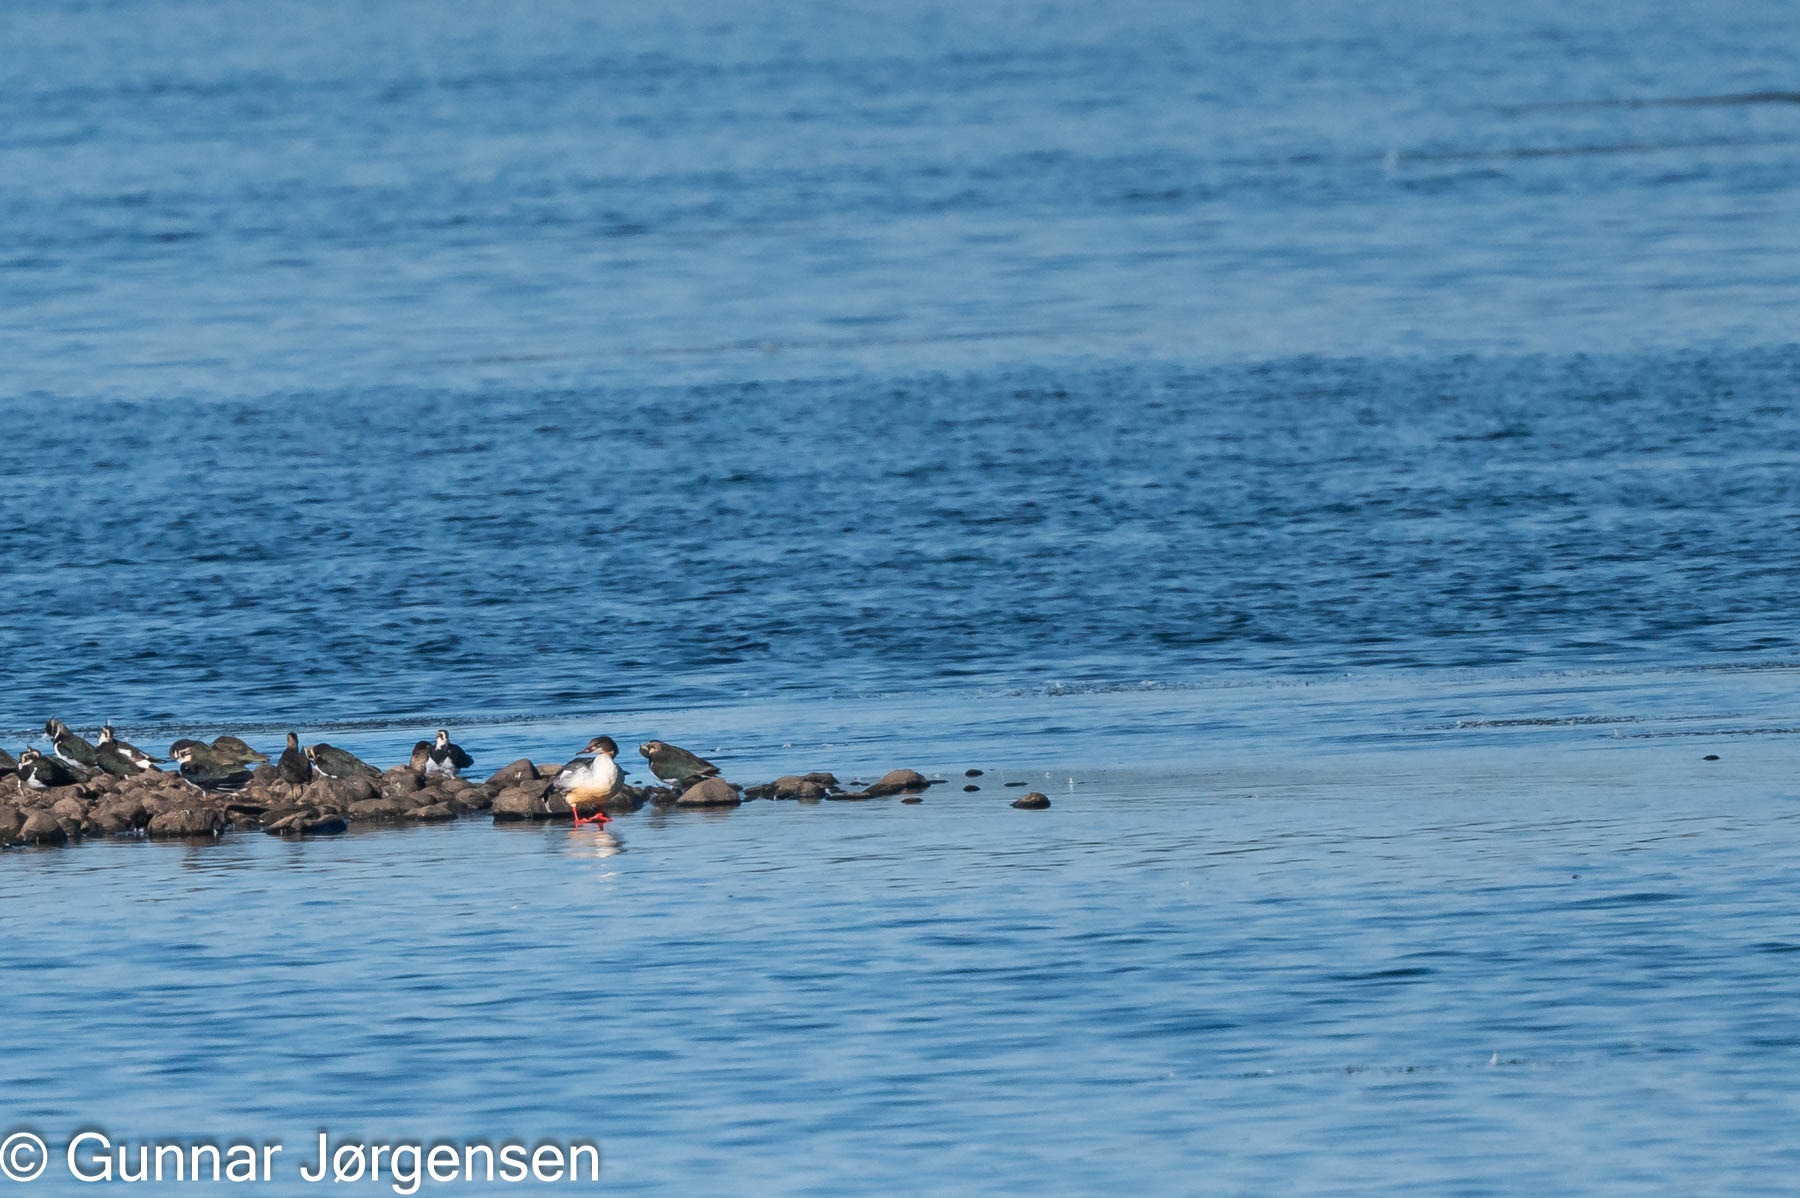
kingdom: Animalia
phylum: Chordata
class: Aves
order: Anseriformes
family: Anatidae
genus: Mergus
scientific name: Mergus merganser
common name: Stor skallesluger
